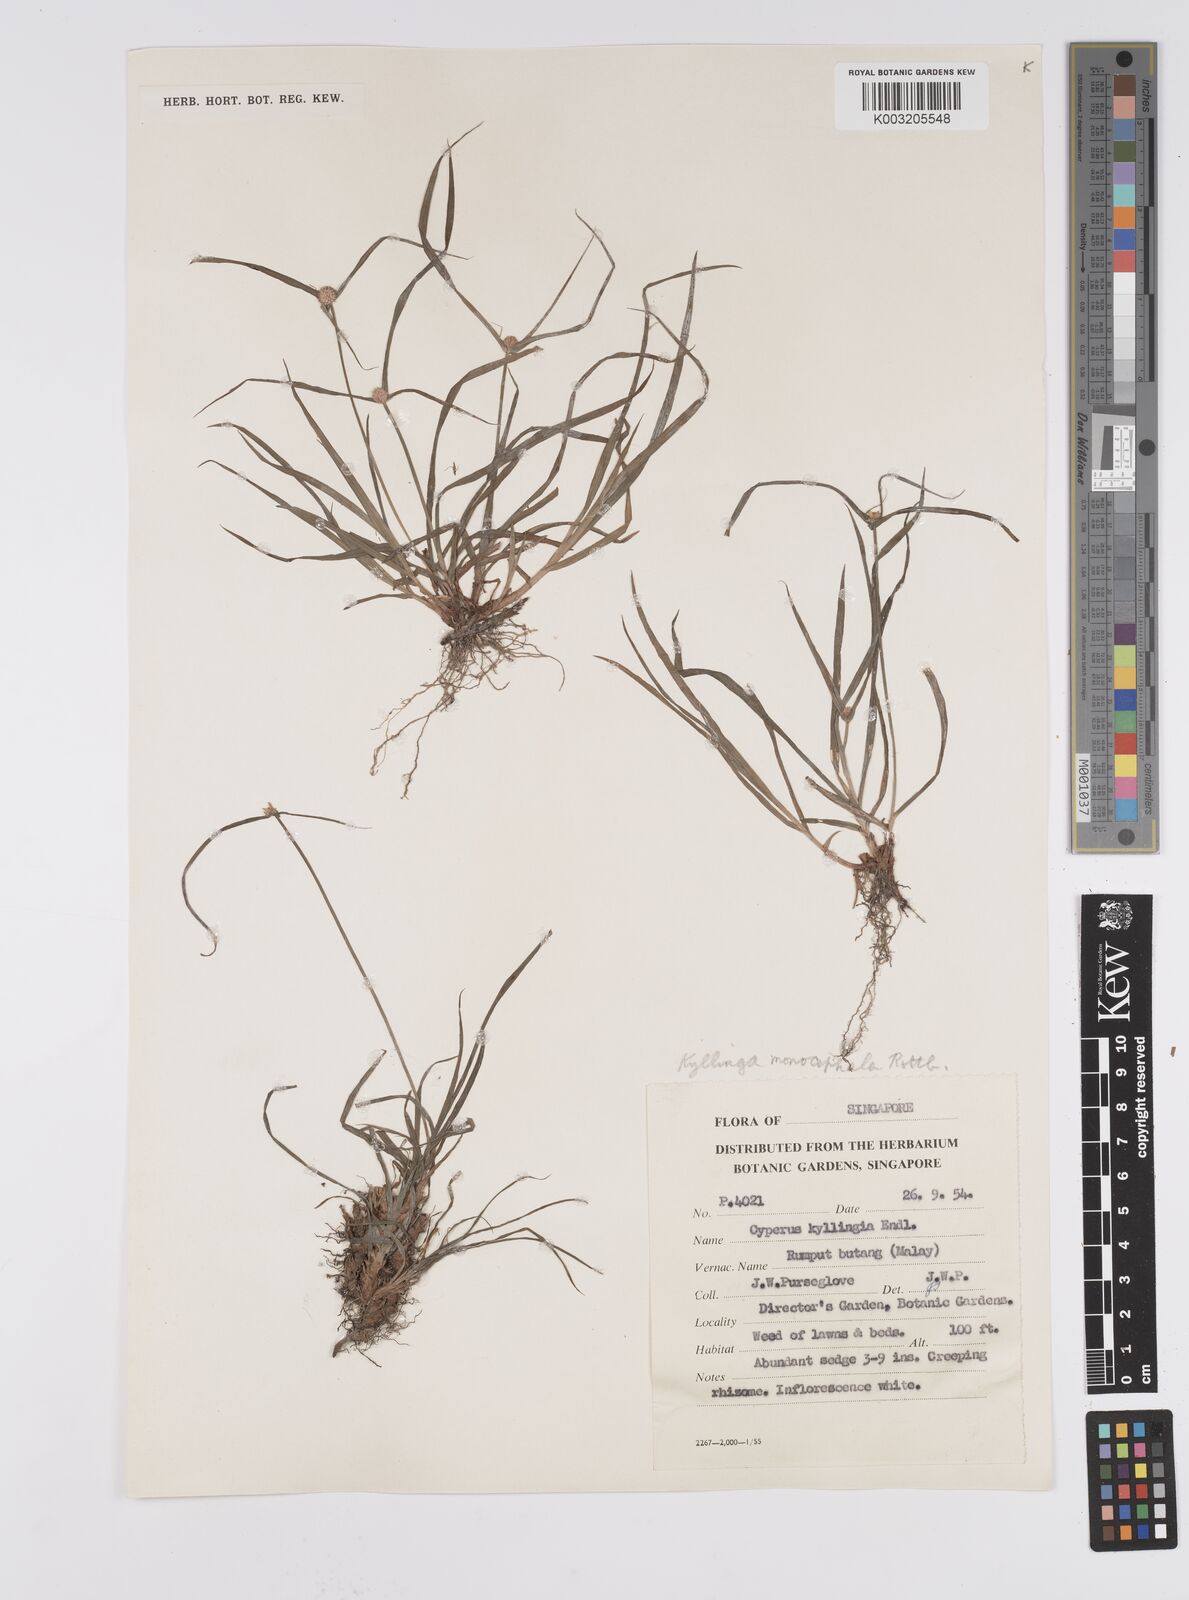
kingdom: Plantae
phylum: Tracheophyta
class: Liliopsida
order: Poales
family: Cyperaceae
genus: Cyperus
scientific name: Cyperus nemoralis
